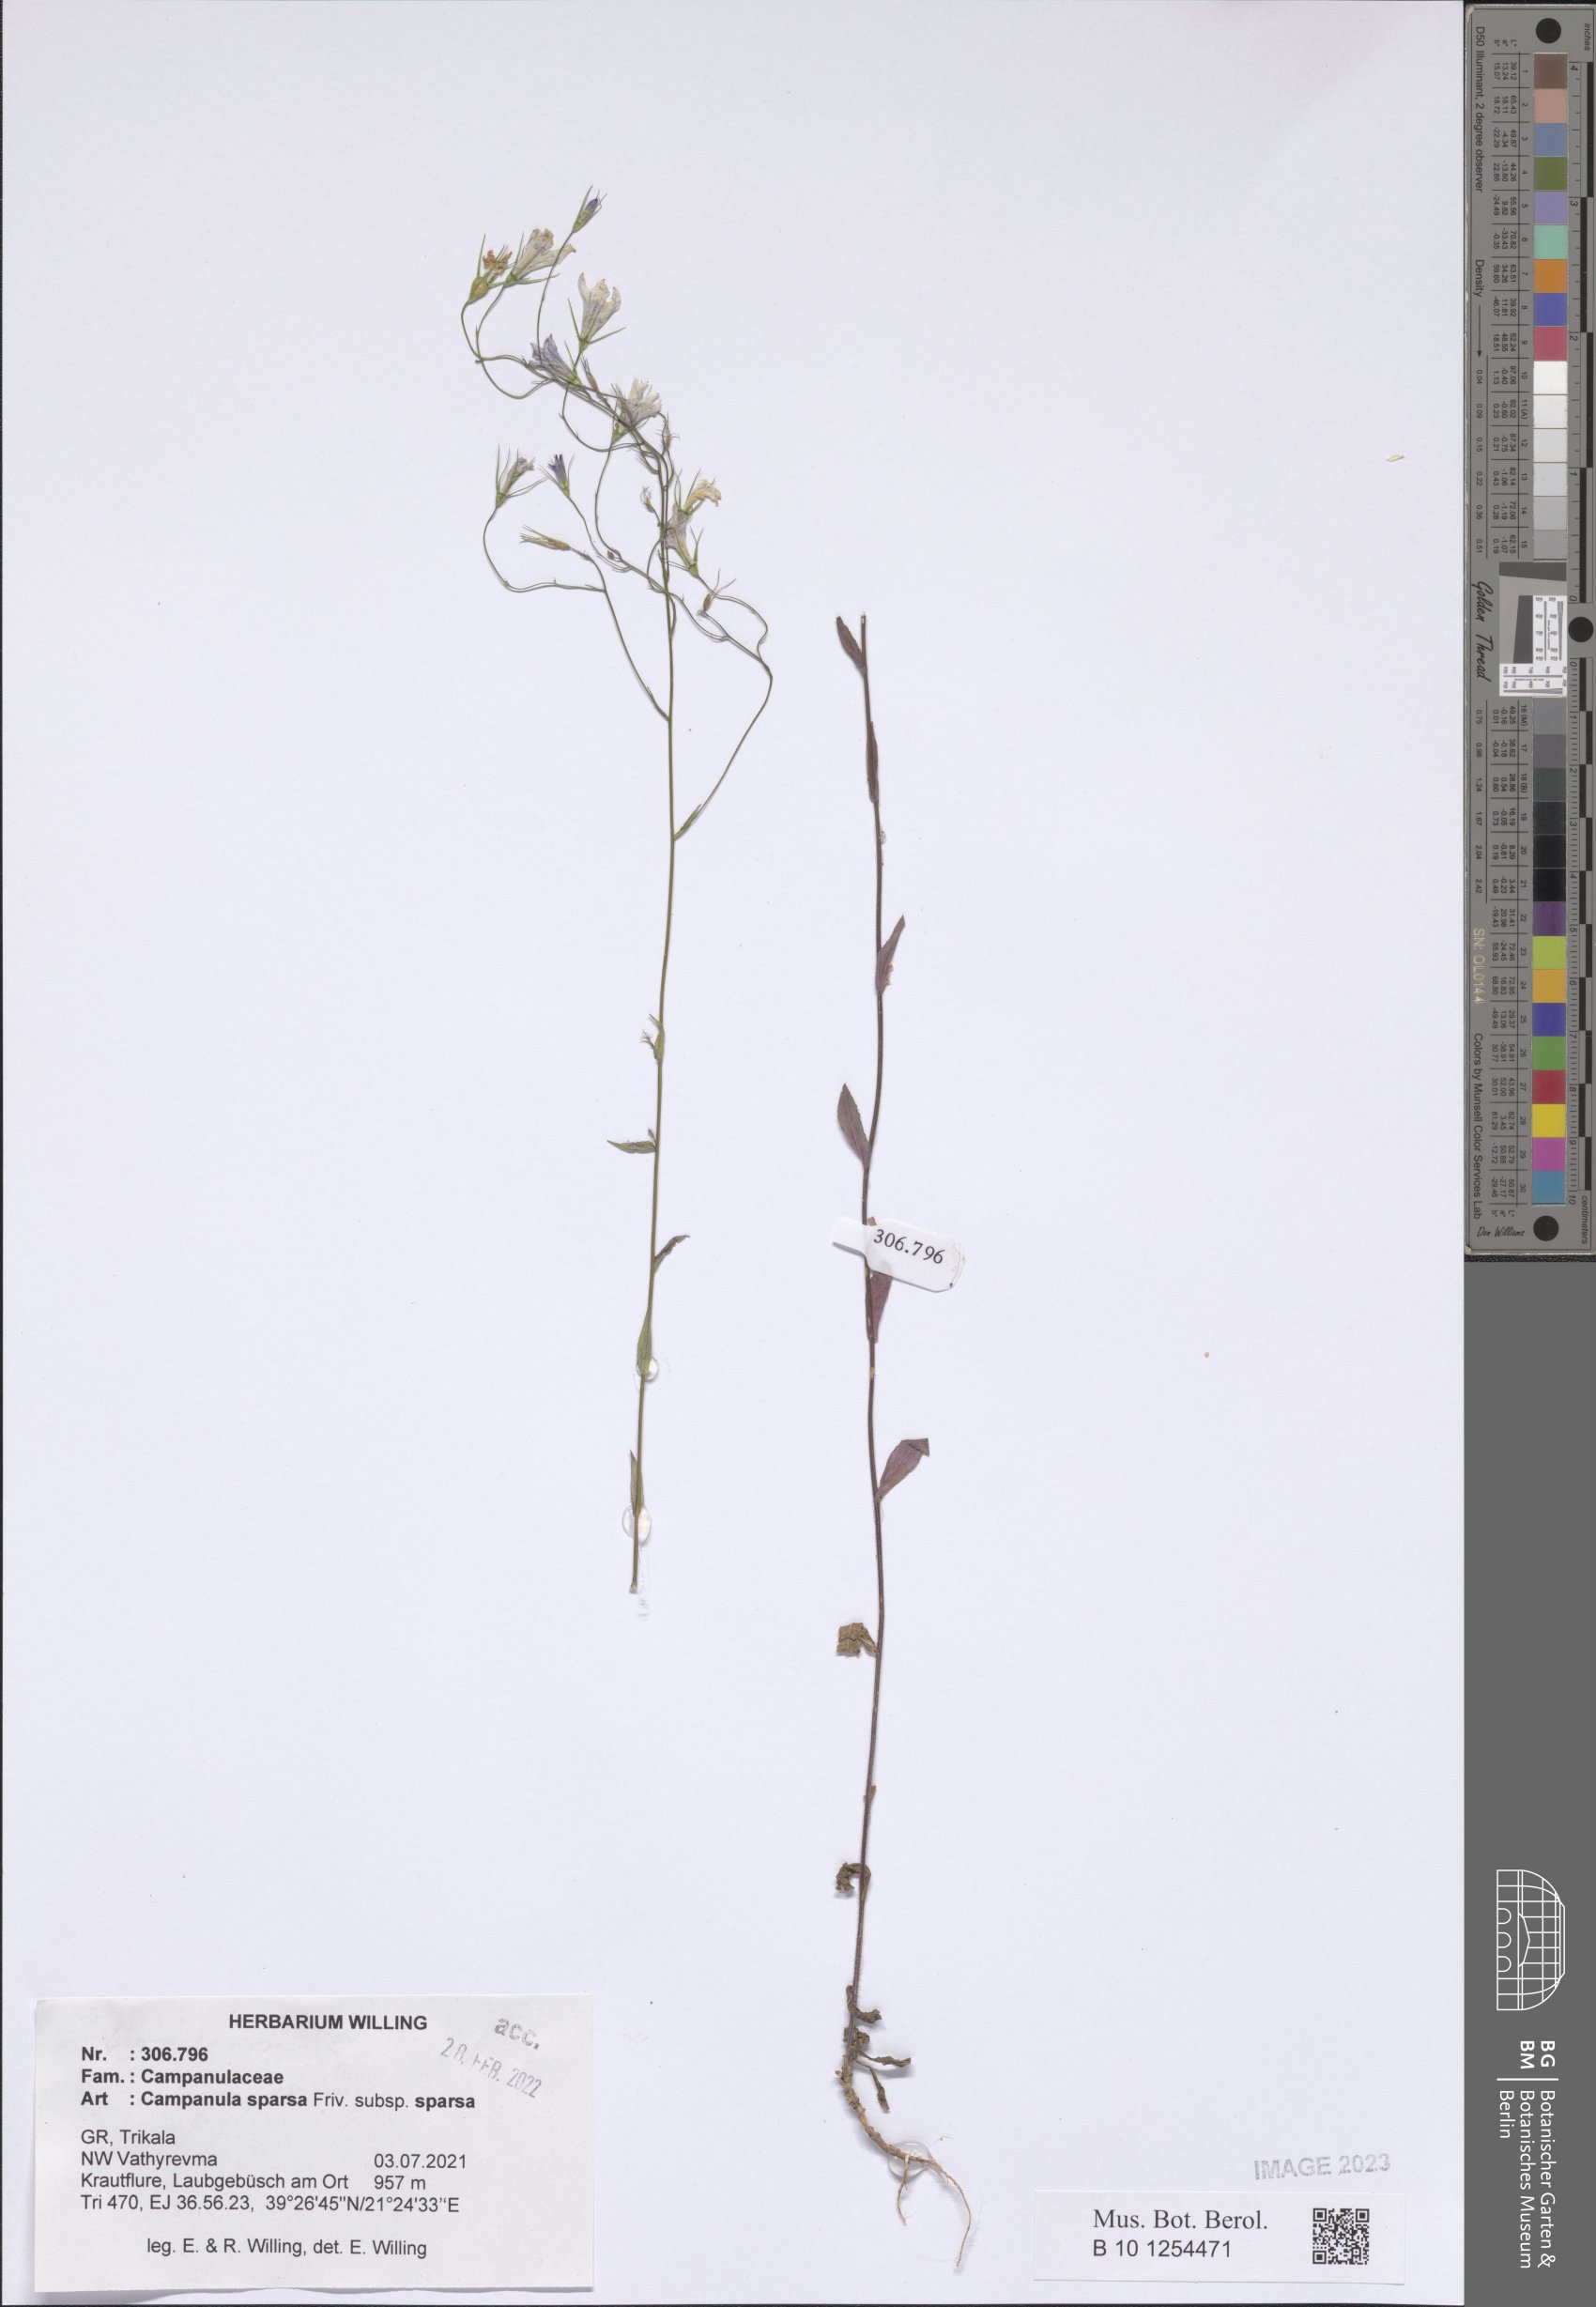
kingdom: Plantae
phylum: Tracheophyta
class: Magnoliopsida
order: Asterales
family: Campanulaceae
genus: Campanula
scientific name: Campanula sparsa
